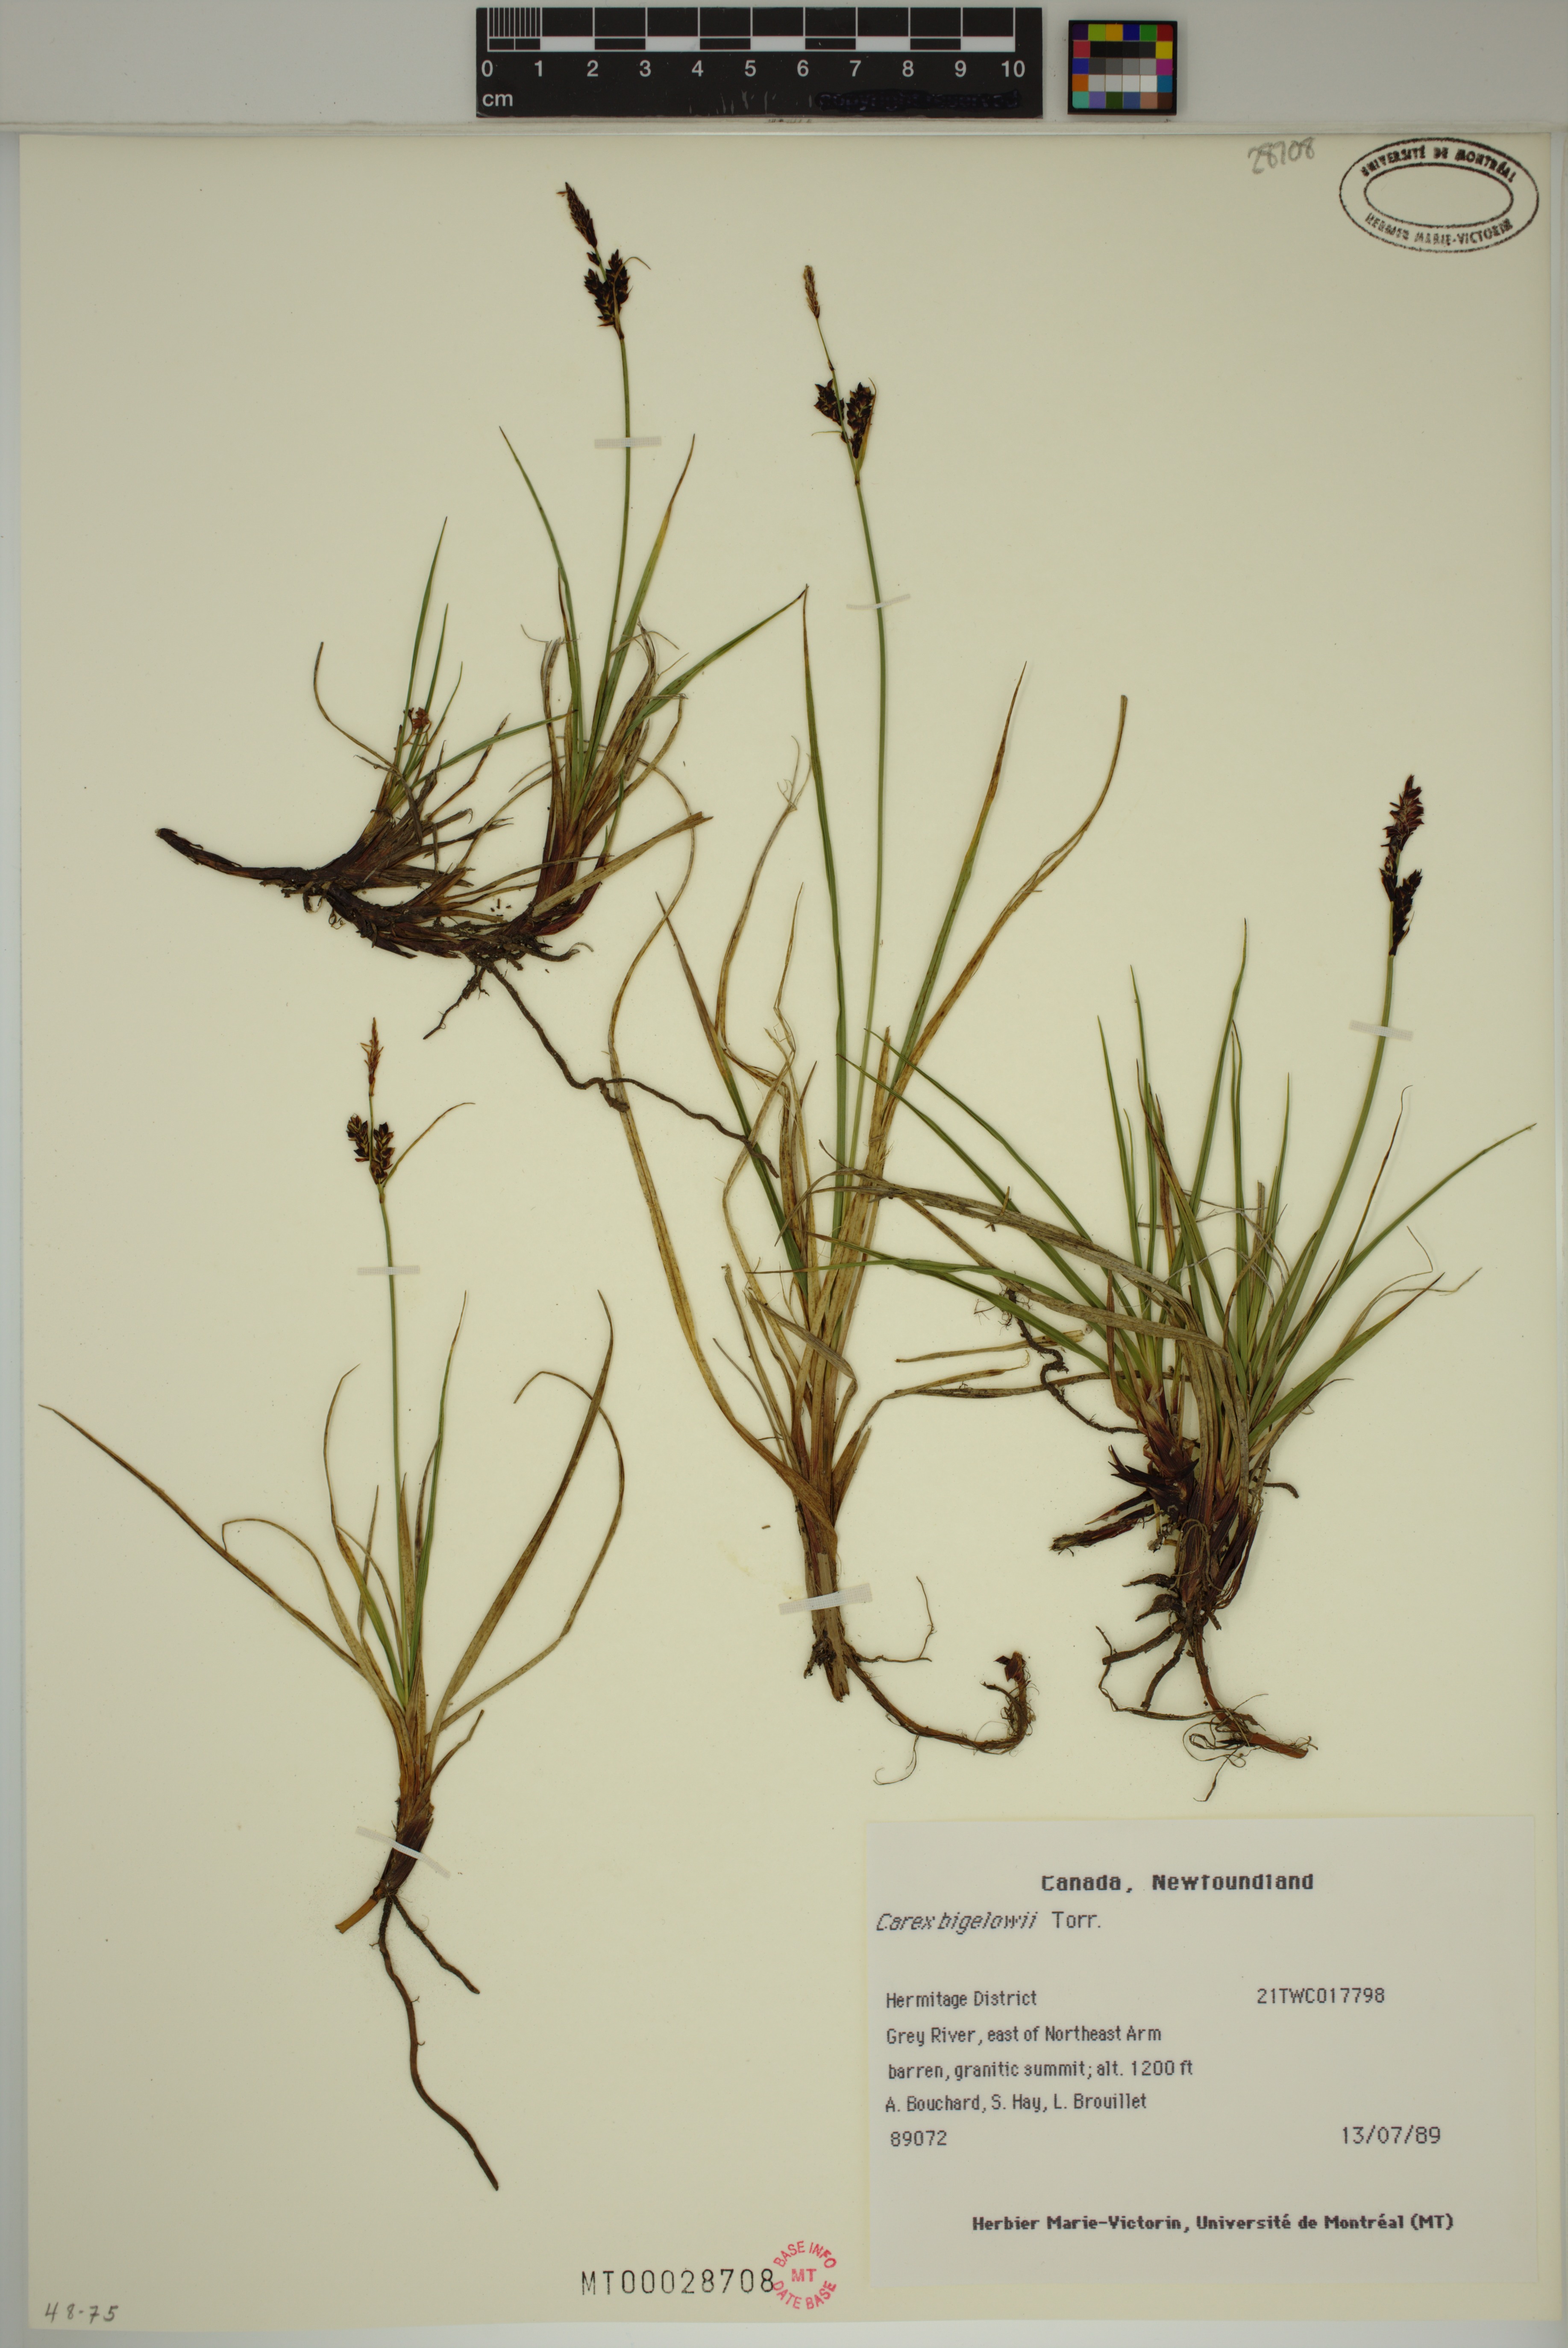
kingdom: Plantae
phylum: Tracheophyta
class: Liliopsida
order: Poales
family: Cyperaceae
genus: Carex
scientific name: Carex bigelowii
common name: Stiff sedge
